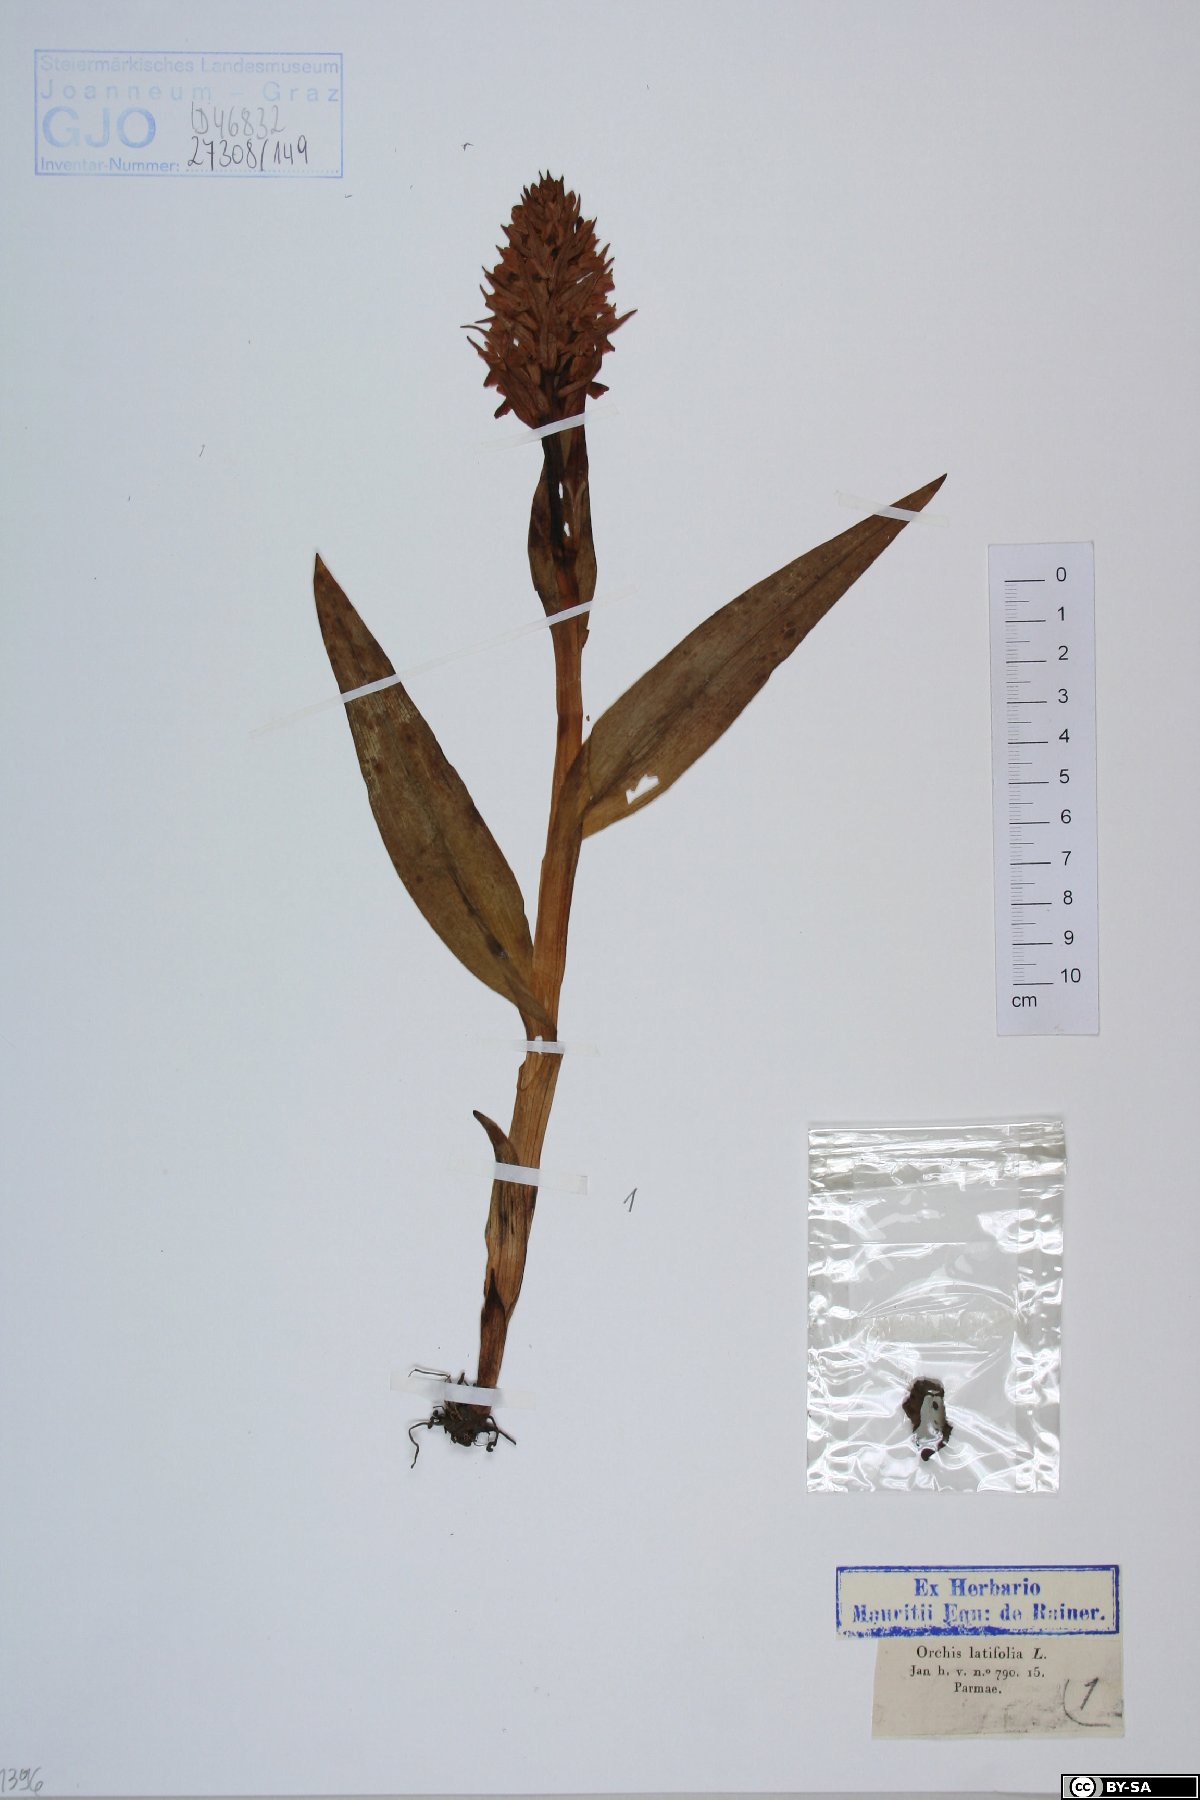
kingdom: Plantae
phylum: Tracheophyta
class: Liliopsida
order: Asparagales
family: Orchidaceae
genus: Dactylorhiza
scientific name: Dactylorhiza incarnata
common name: Early marsh-orchid
